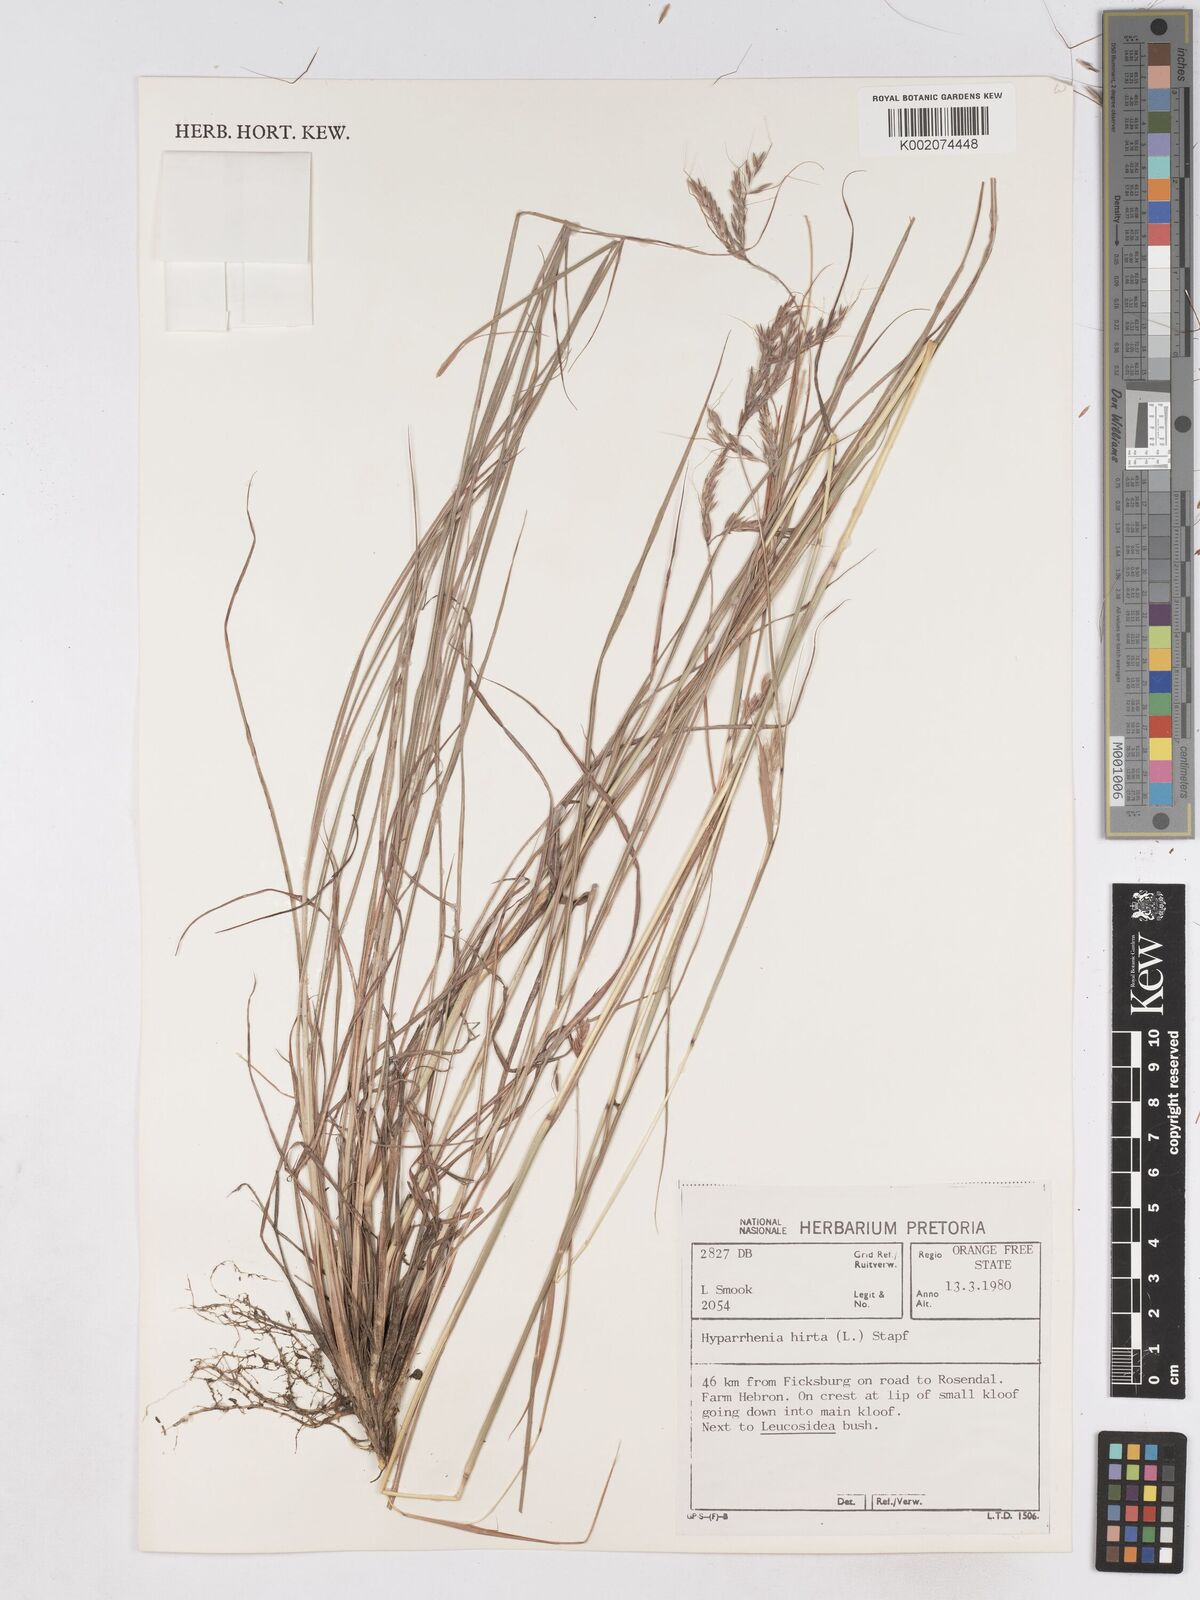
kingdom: Plantae
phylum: Tracheophyta
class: Liliopsida
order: Poales
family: Poaceae
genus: Hyparrhenia
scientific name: Hyparrhenia hirta
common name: Thatching grass
